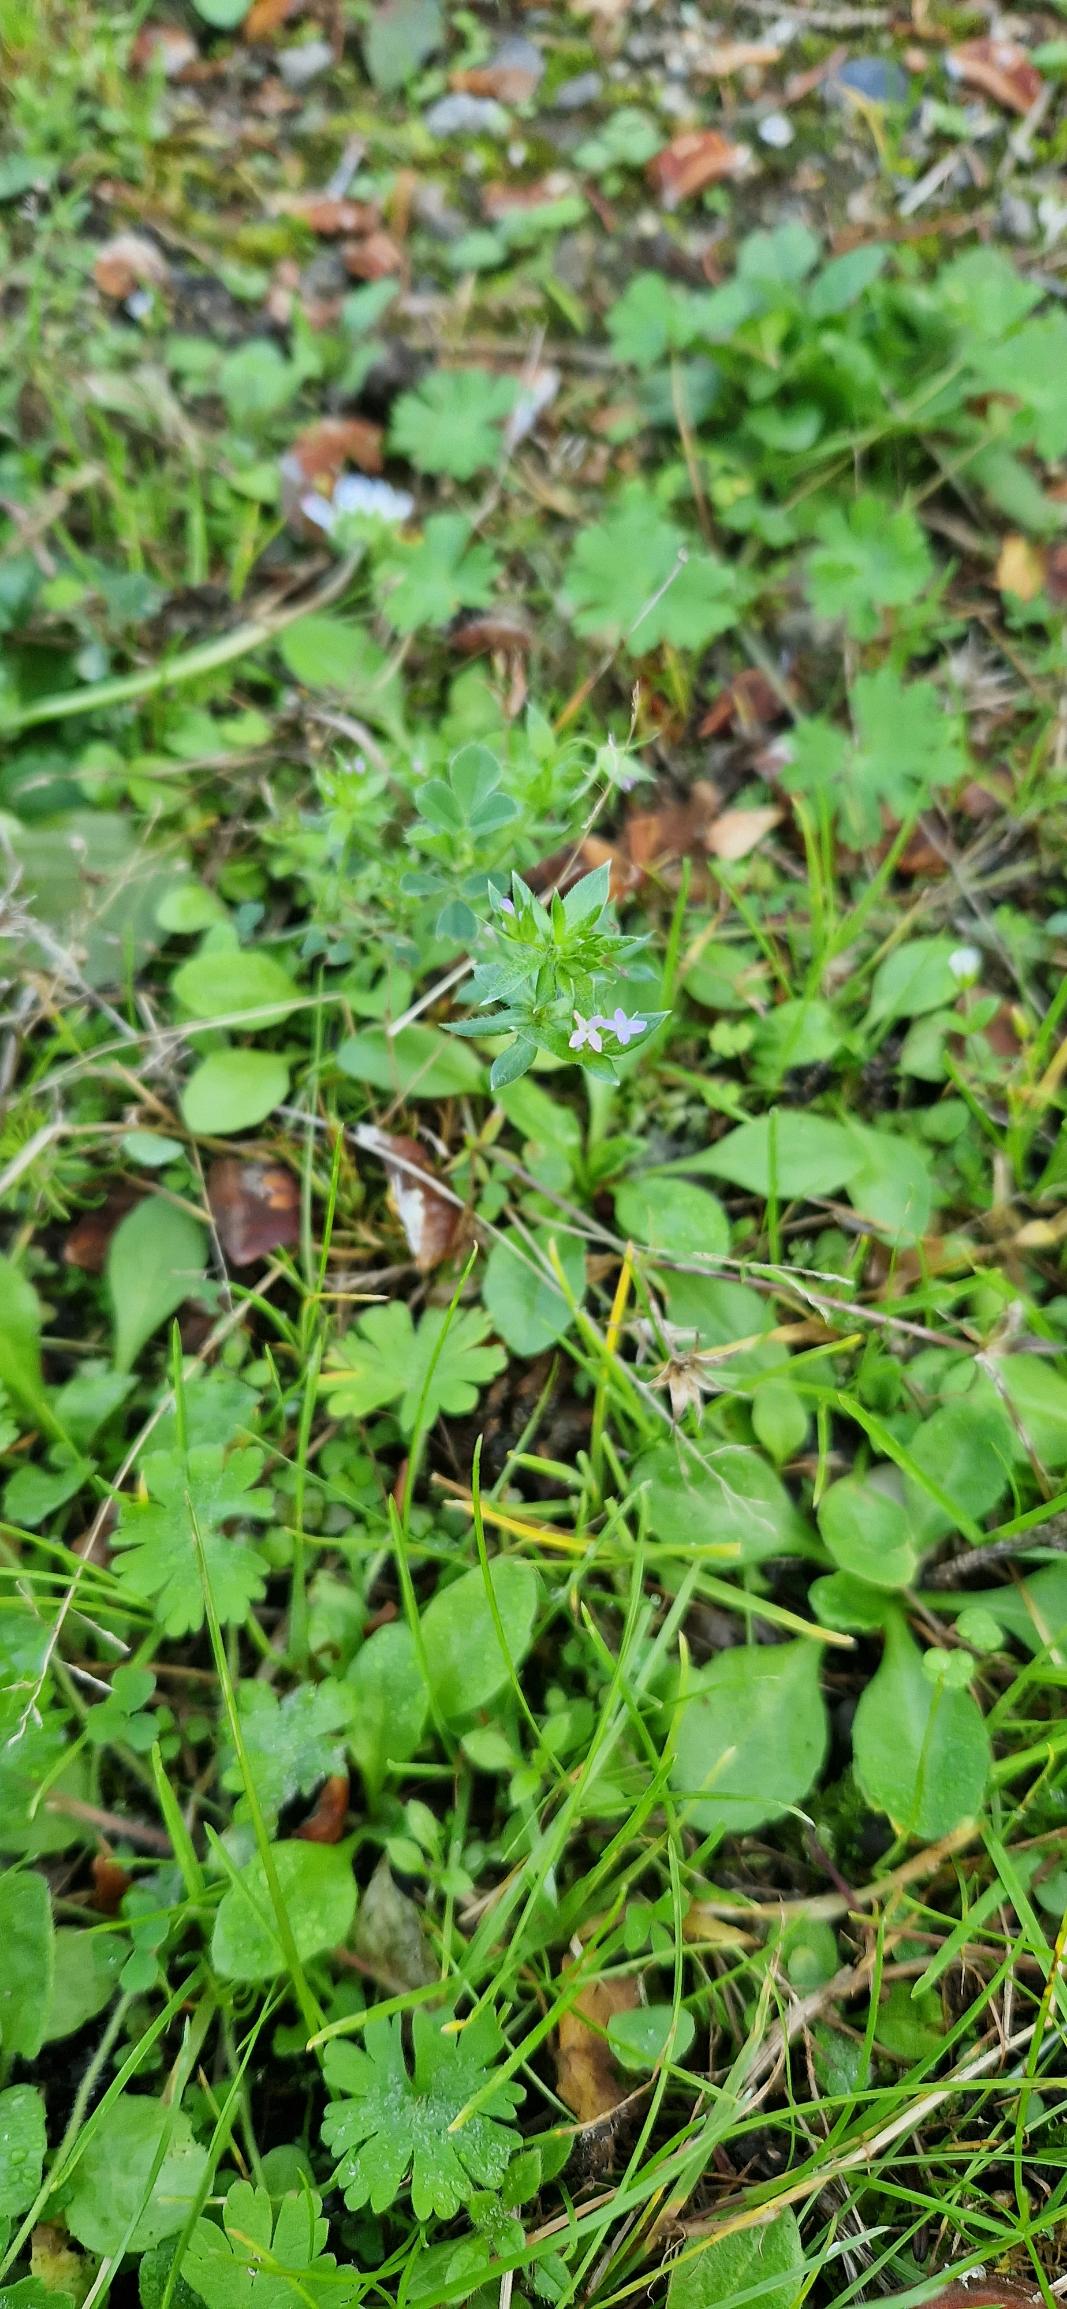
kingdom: Plantae
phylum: Tracheophyta
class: Magnoliopsida
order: Gentianales
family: Rubiaceae
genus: Sherardia
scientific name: Sherardia arvensis
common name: Blåstjerne
